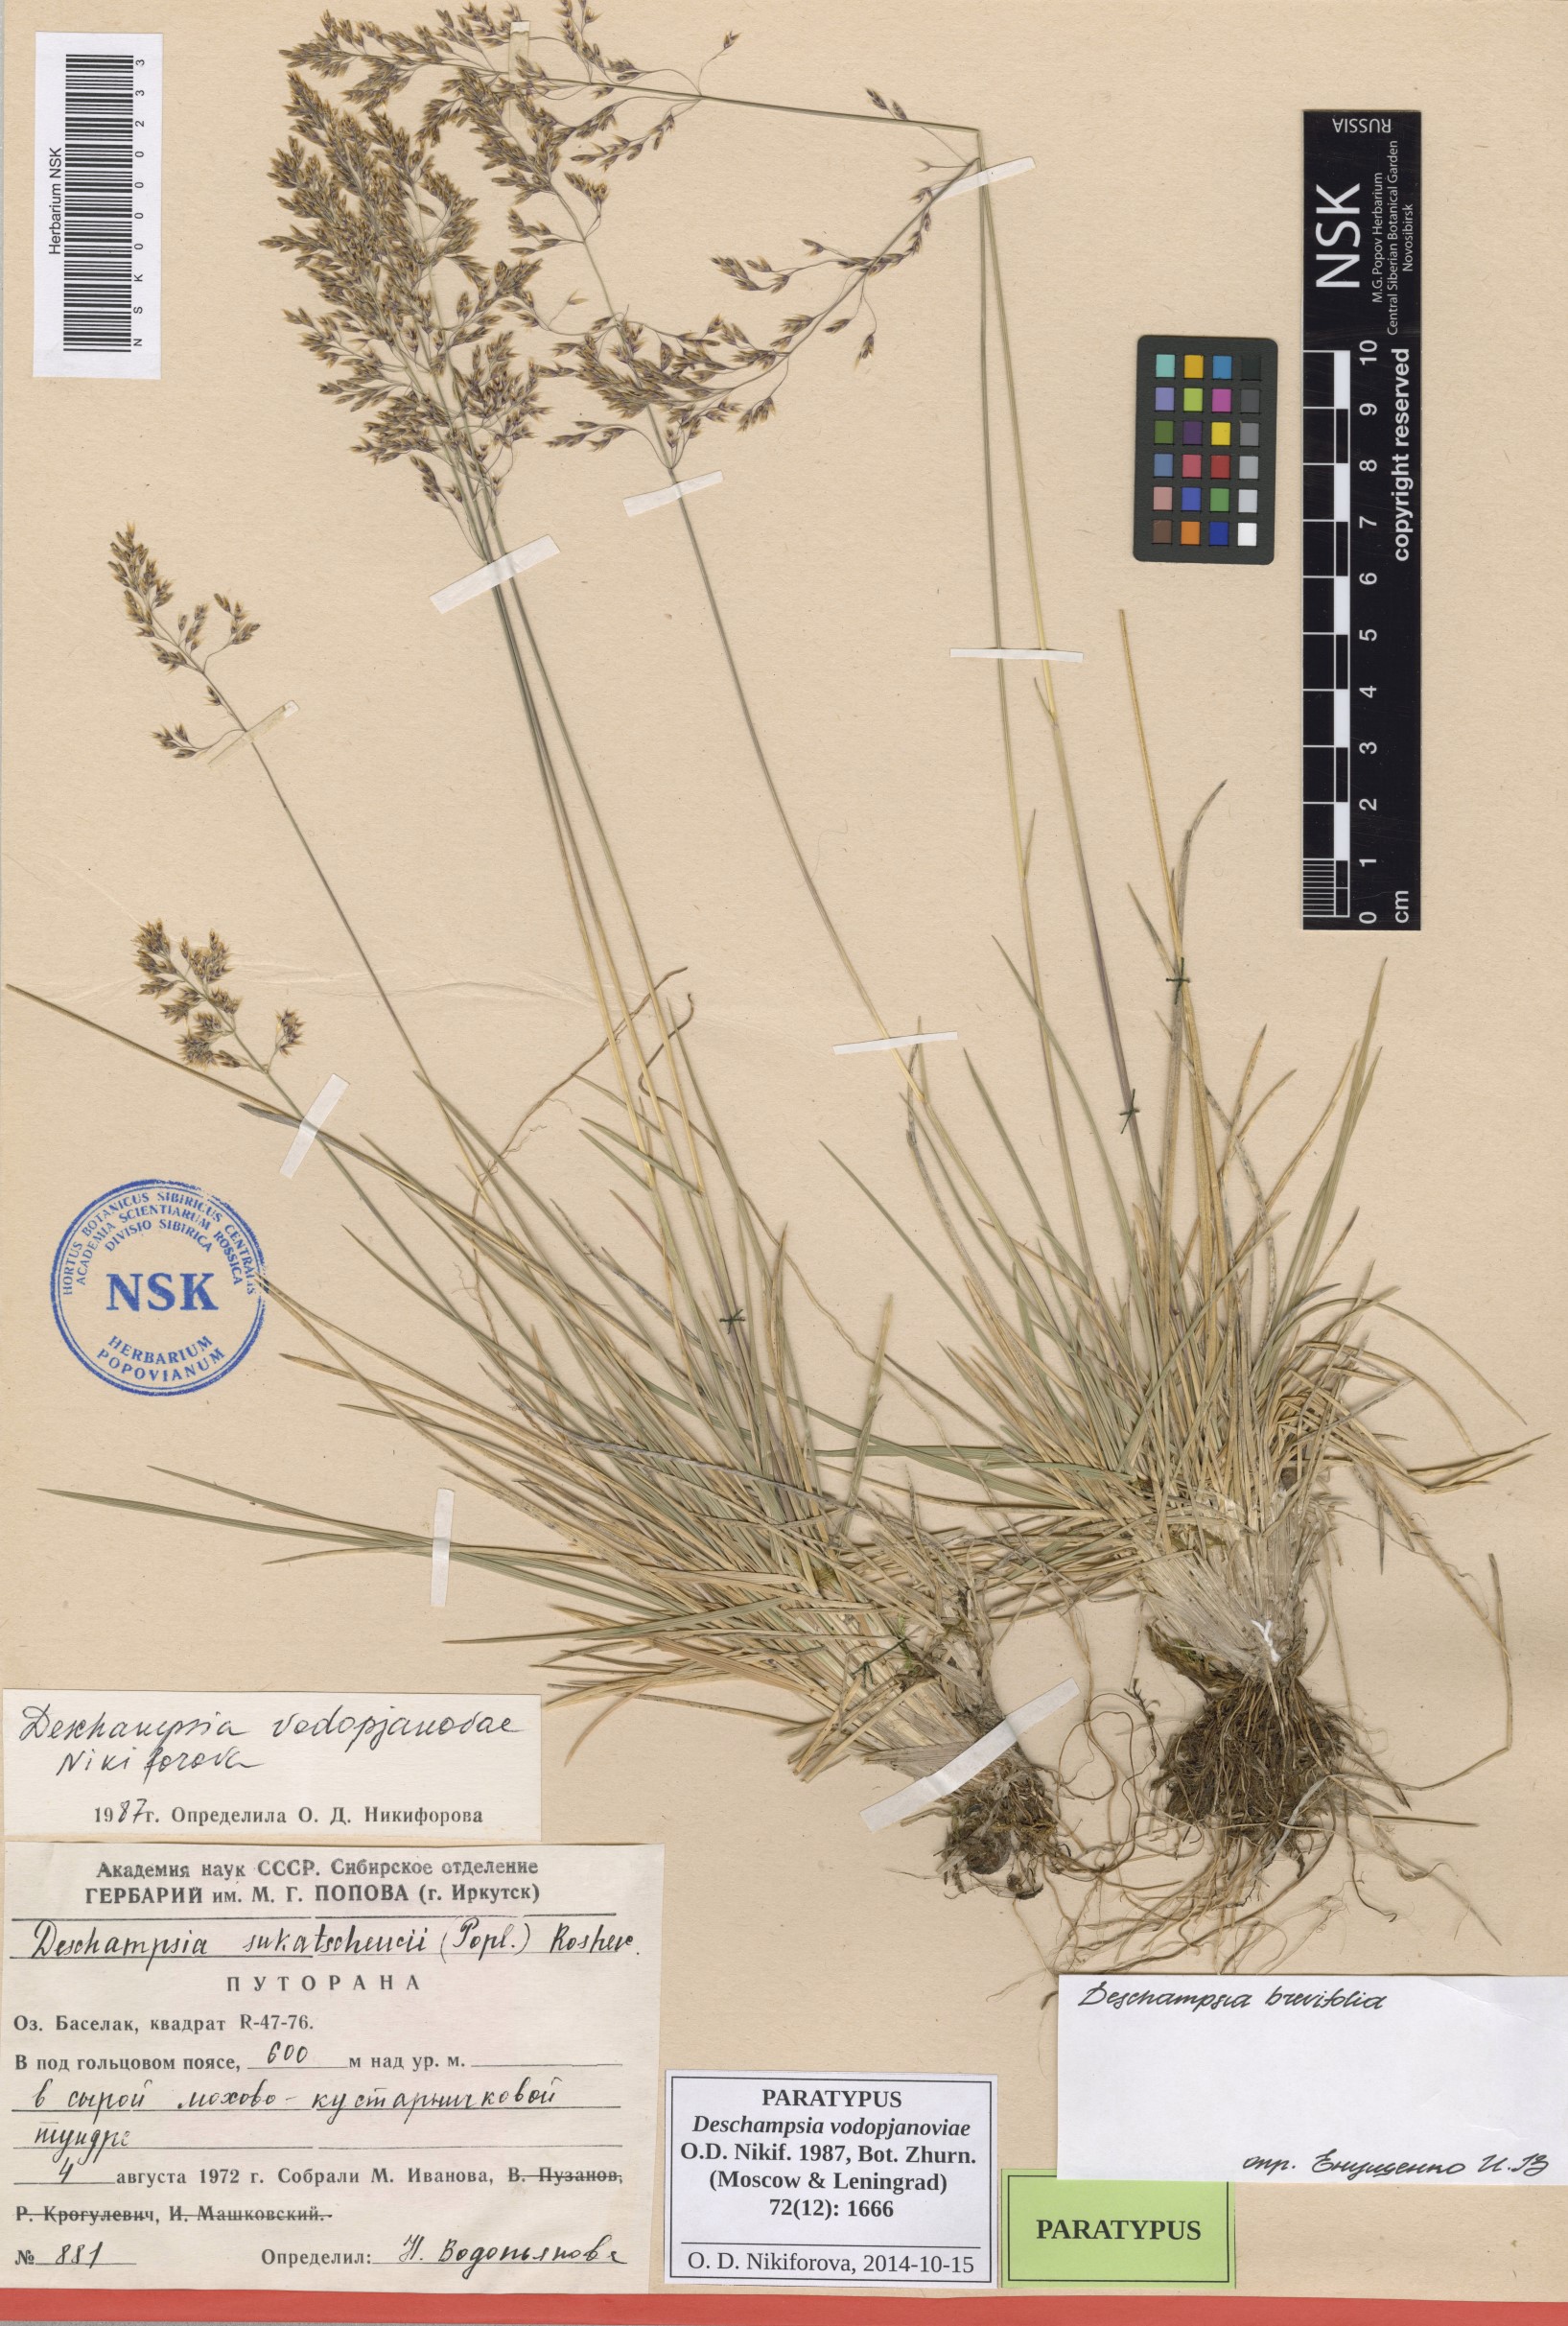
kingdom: Plantae
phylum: Tracheophyta
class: Liliopsida
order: Poales
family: Poaceae
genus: Deschampsia
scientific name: Deschampsia cespitosa
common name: Tufted hair-grass
